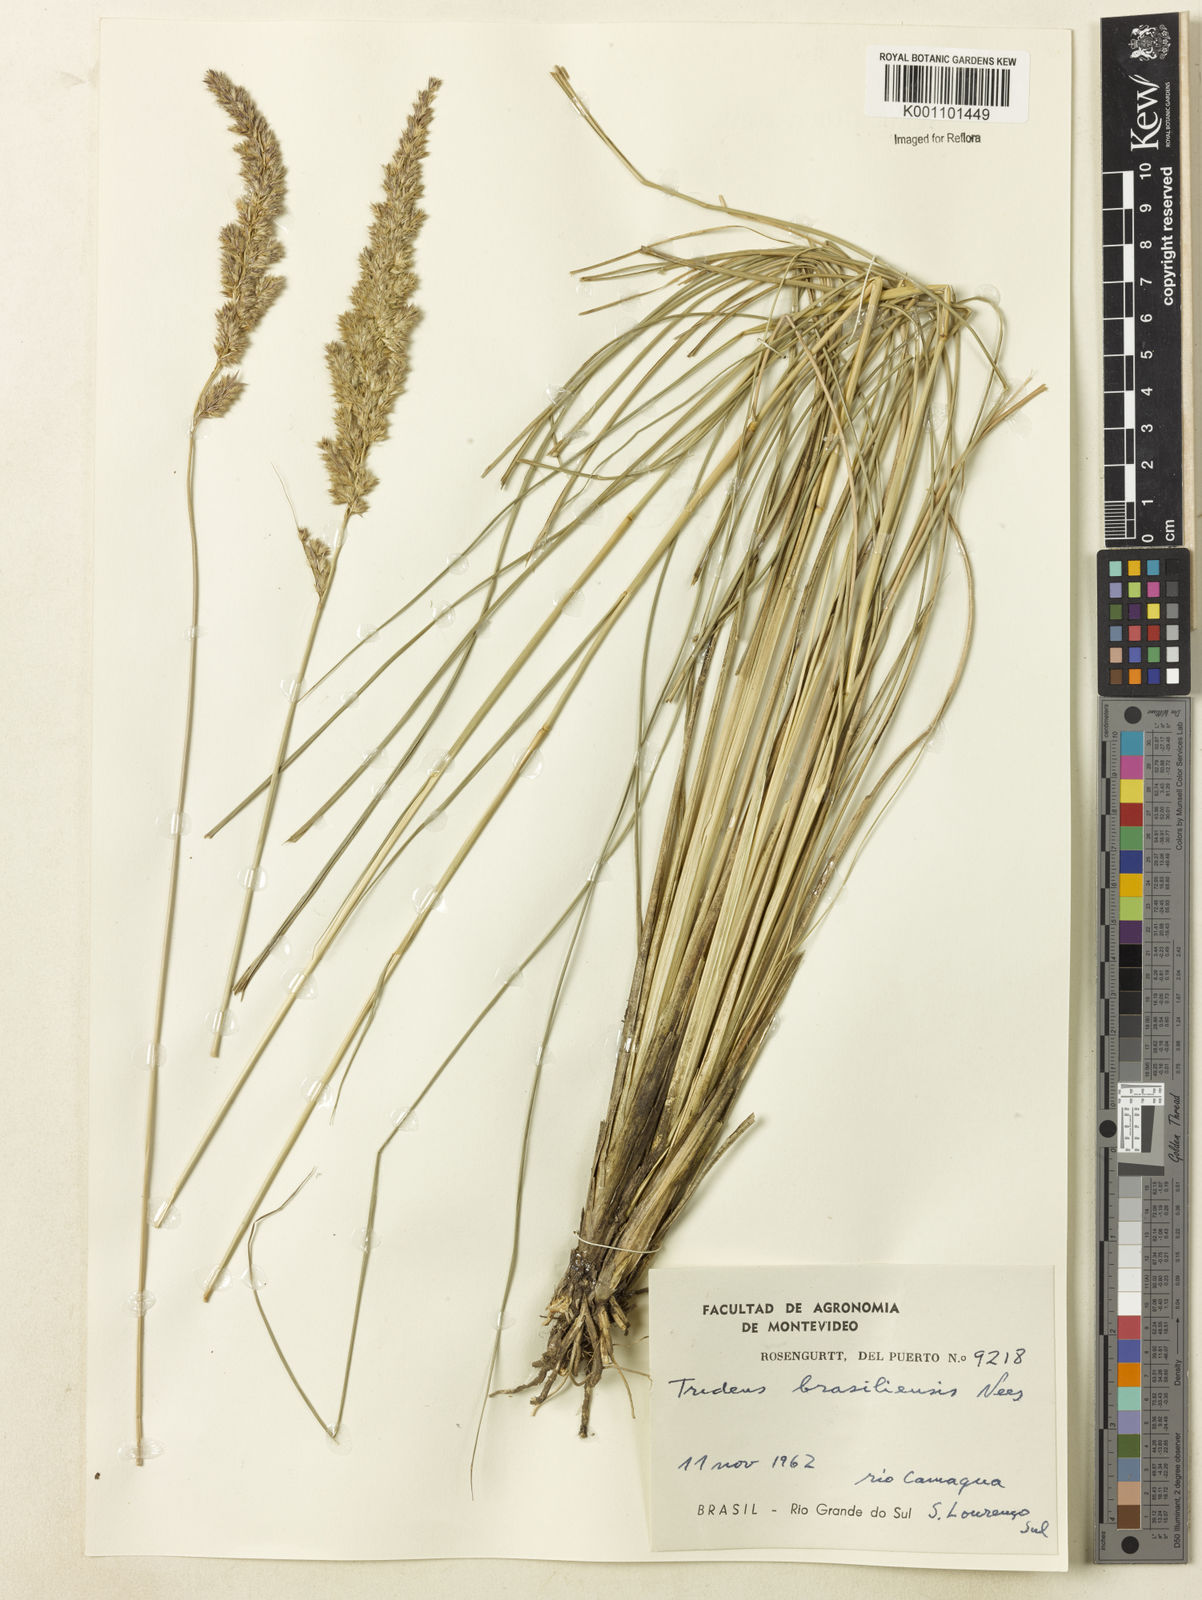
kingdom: Plantae
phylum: Tracheophyta
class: Liliopsida
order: Poales
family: Poaceae
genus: Tridens
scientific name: Tridens brasiliensis
